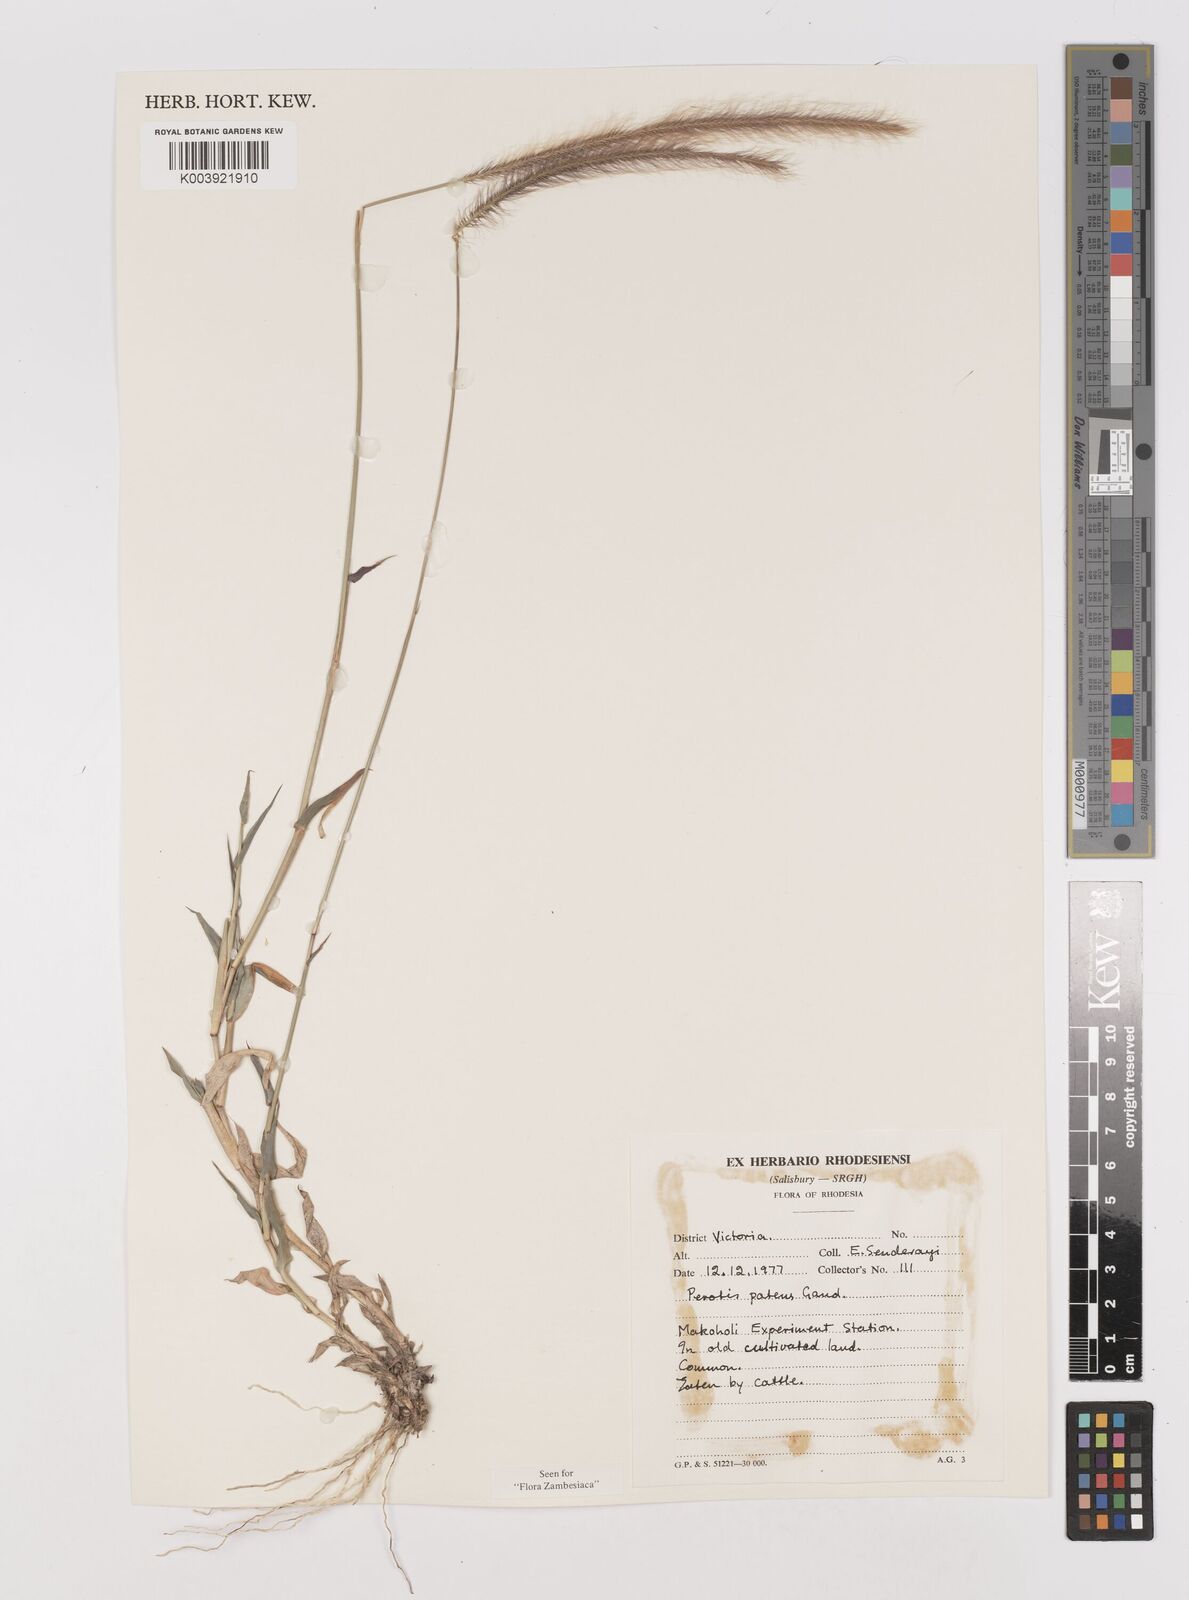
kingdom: Plantae
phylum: Tracheophyta
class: Liliopsida
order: Poales
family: Poaceae
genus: Perotis
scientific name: Perotis patens
